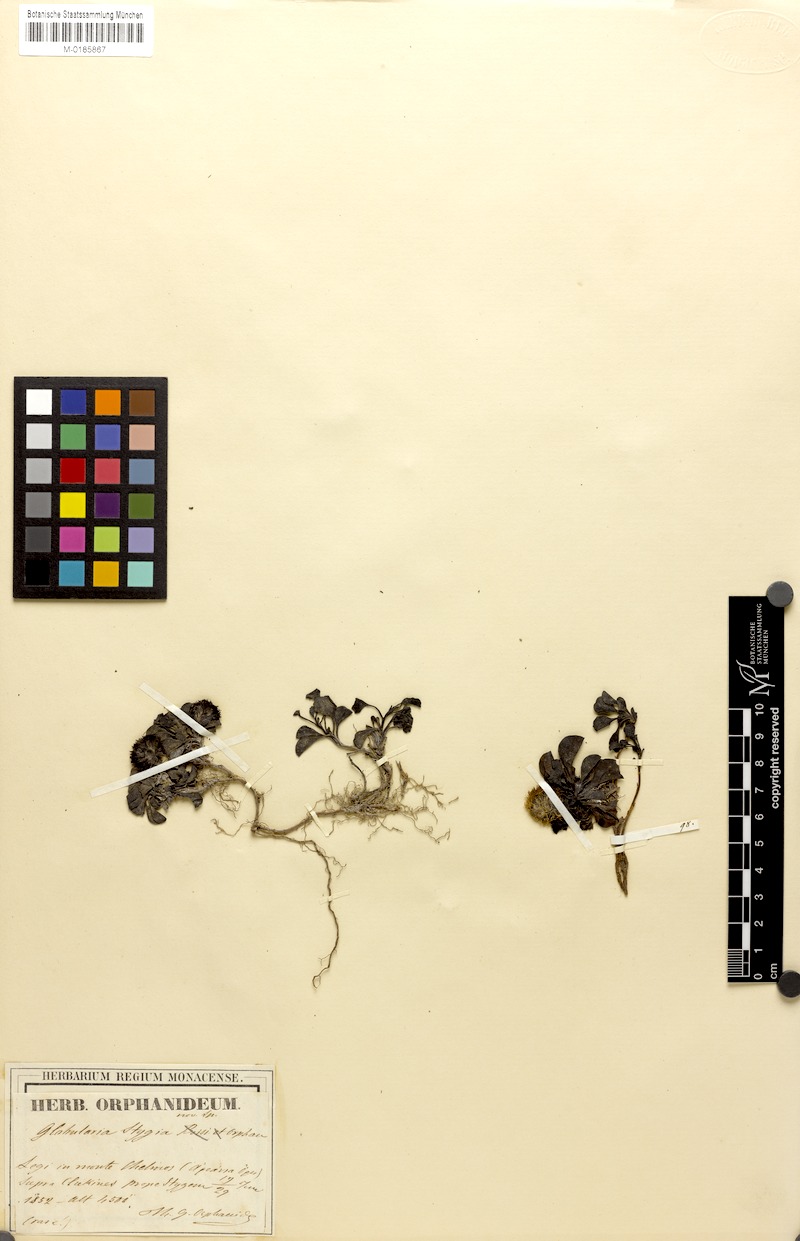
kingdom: Plantae
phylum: Tracheophyta
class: Magnoliopsida
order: Lamiales
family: Plantaginaceae
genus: Globularia
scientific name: Globularia stygia
